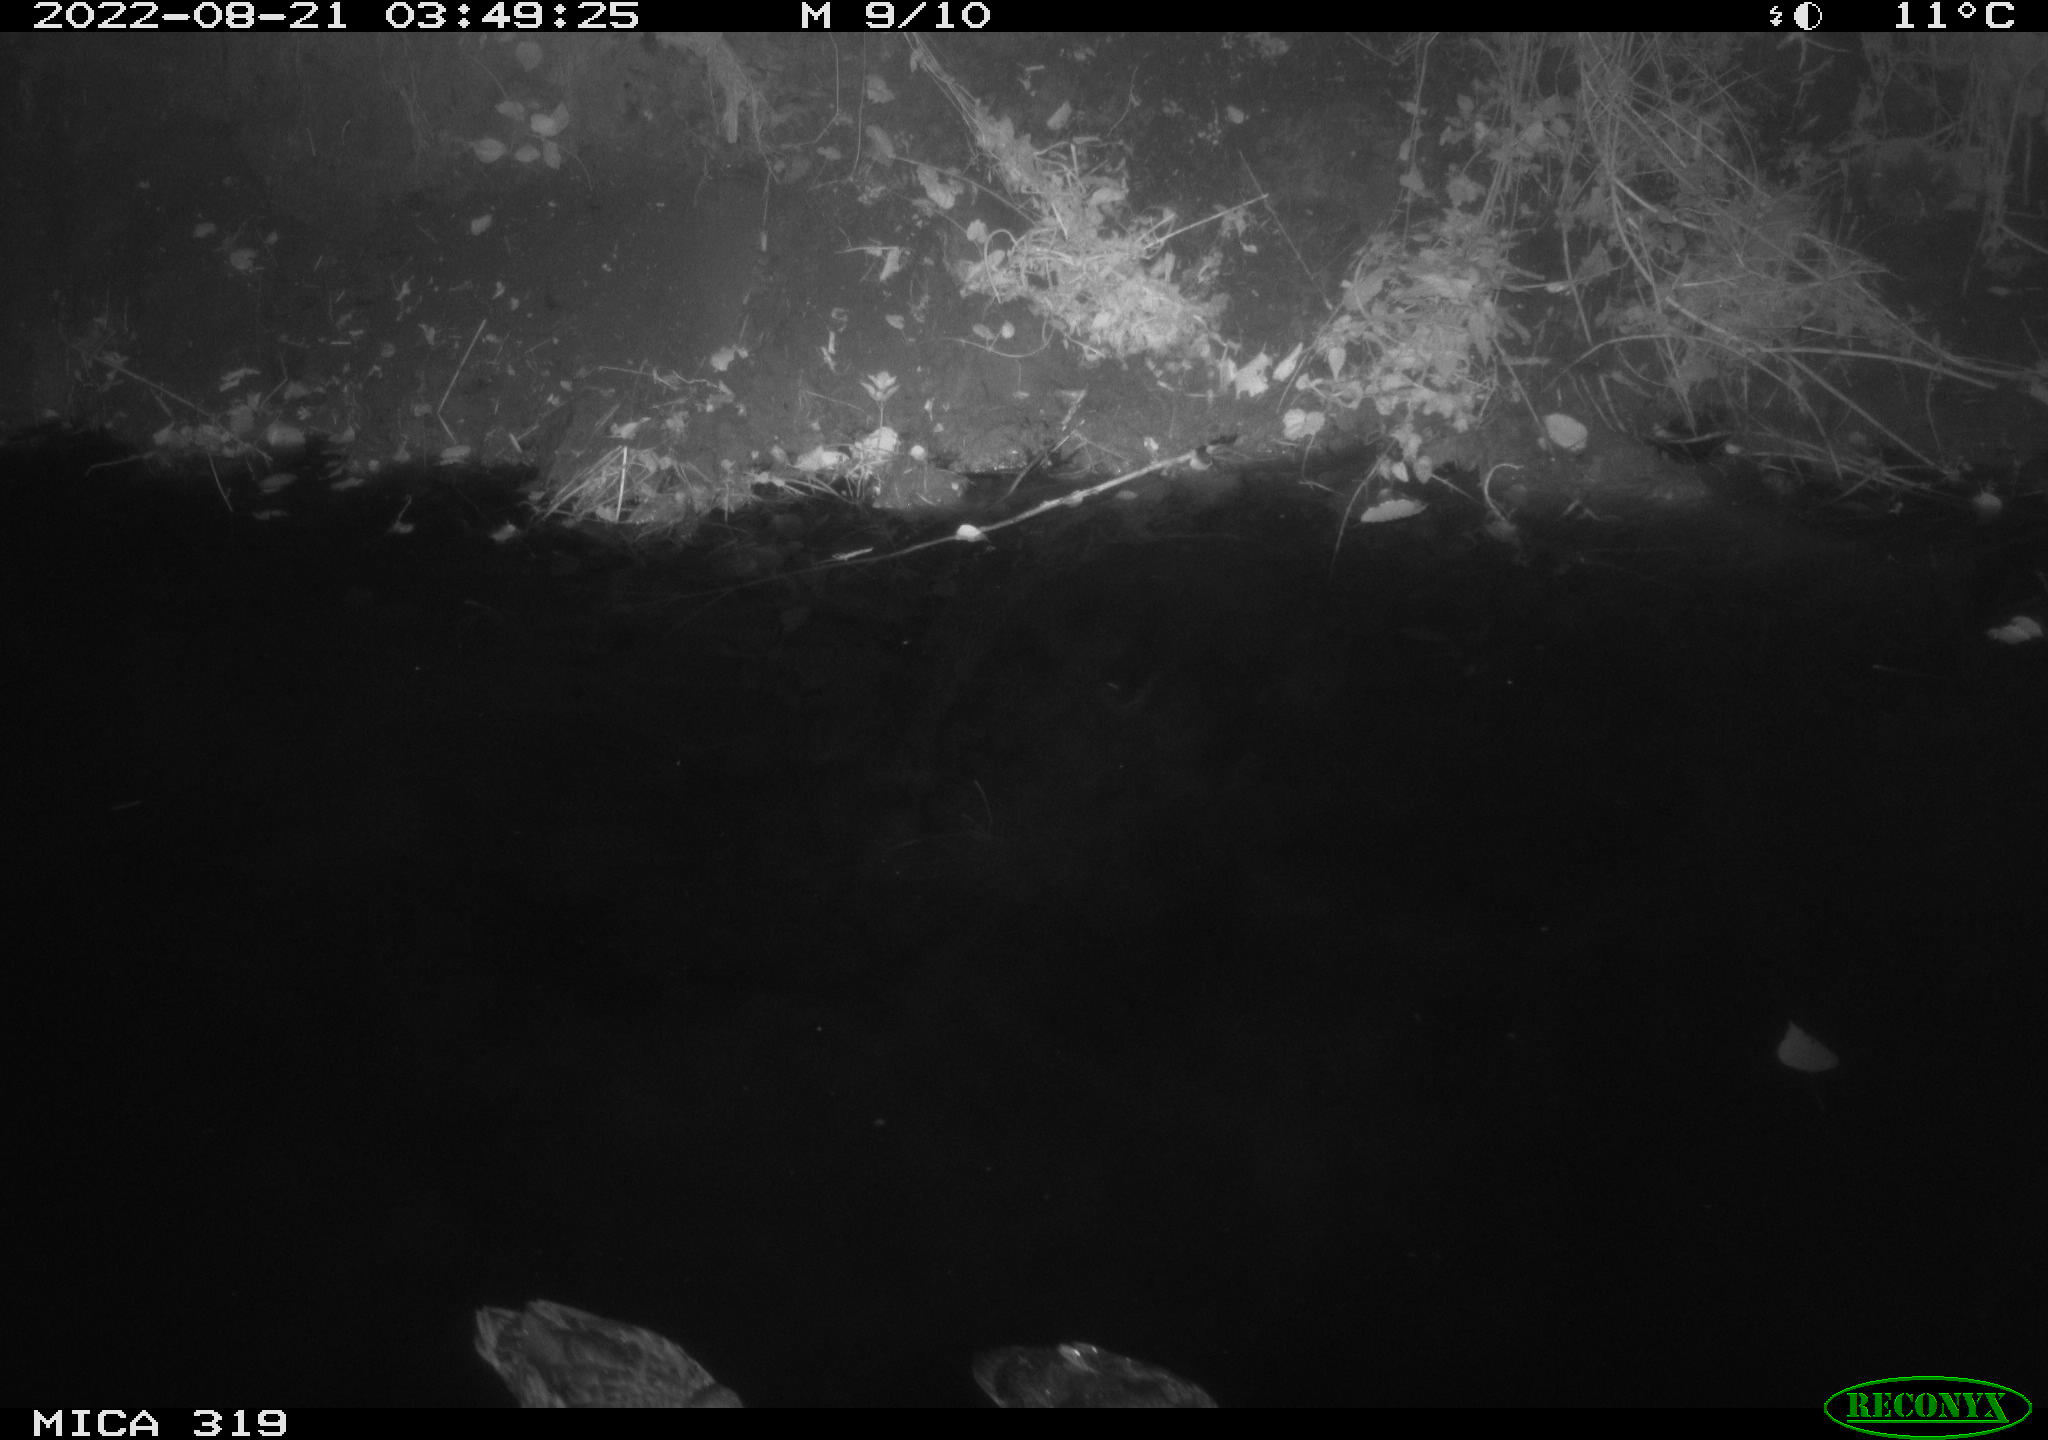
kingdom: Animalia
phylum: Chordata
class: Aves
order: Anseriformes
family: Anatidae
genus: Anas
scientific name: Anas
